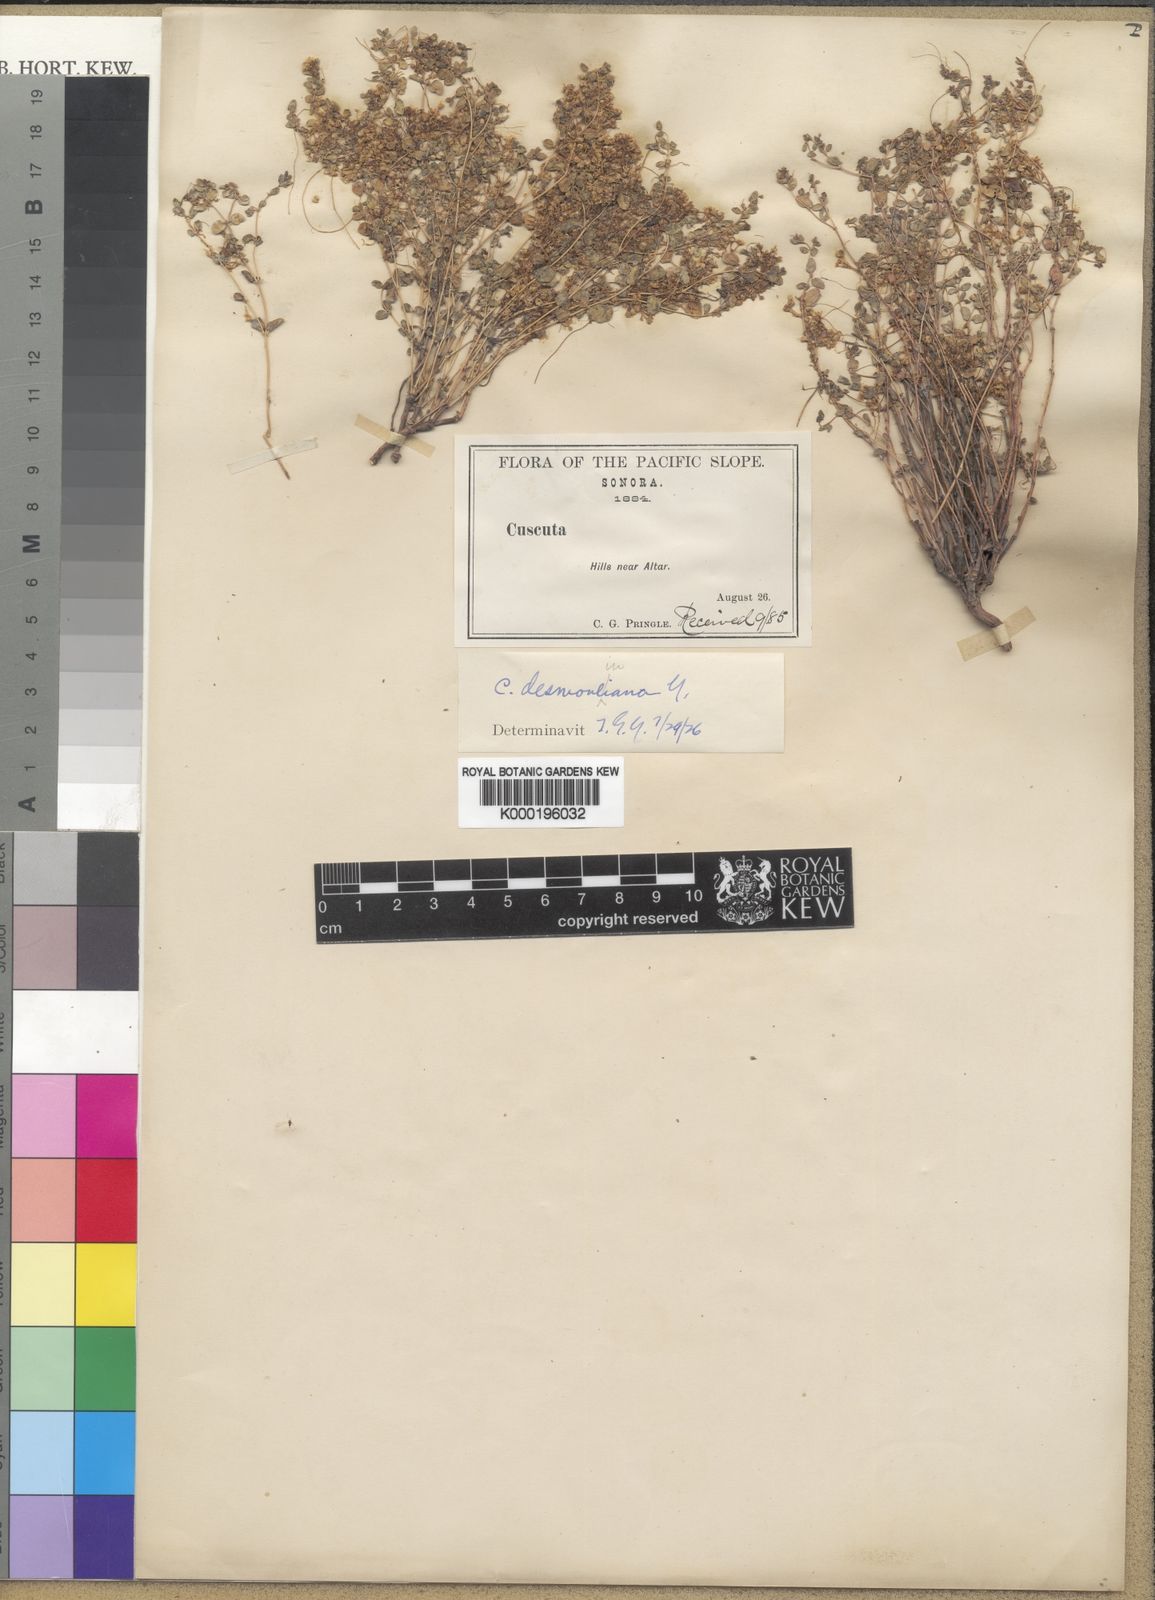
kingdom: Plantae
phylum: Tracheophyta
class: Magnoliopsida
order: Solanales
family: Convolvulaceae
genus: Cuscuta
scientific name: Cuscuta desmouliniana
